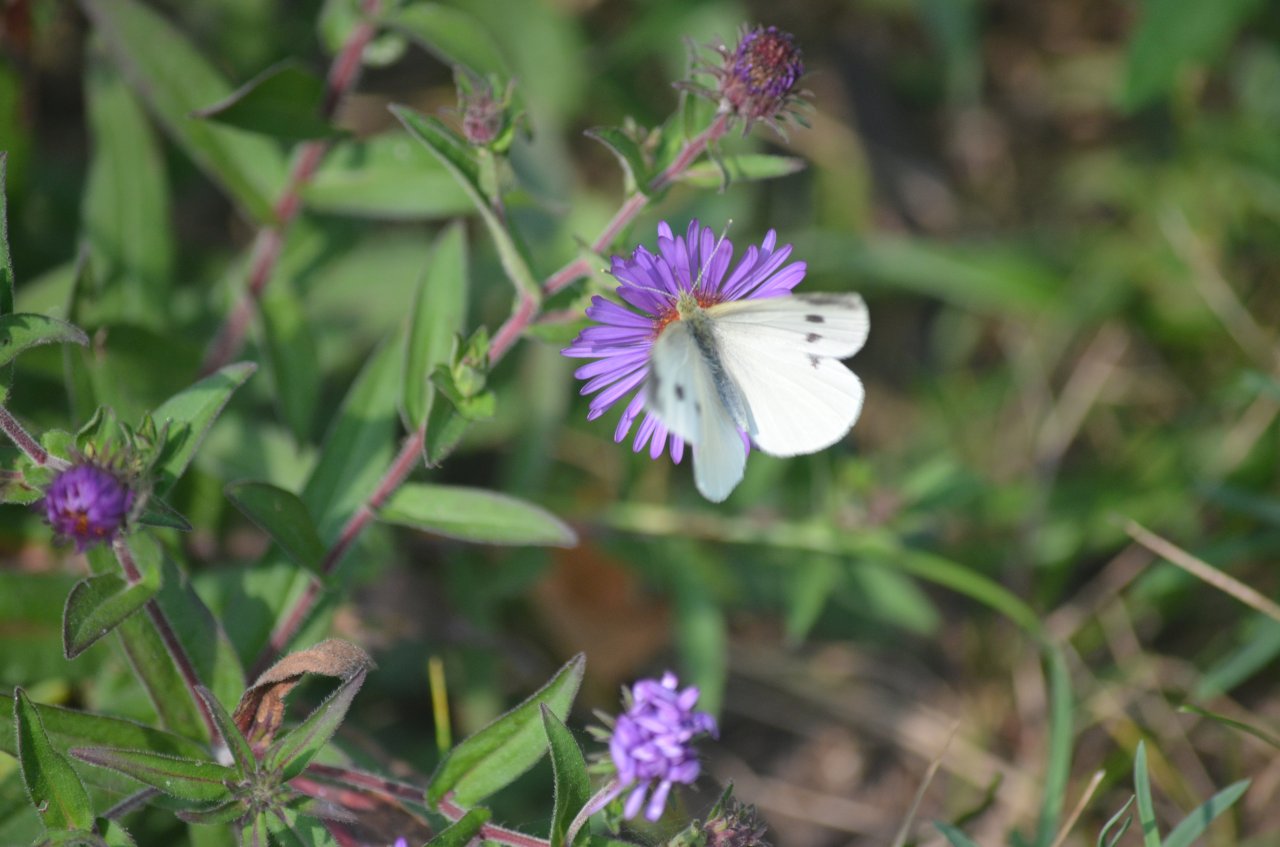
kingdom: Animalia
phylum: Arthropoda
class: Insecta
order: Lepidoptera
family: Pieridae
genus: Pieris
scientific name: Pieris rapae
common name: Cabbage White
